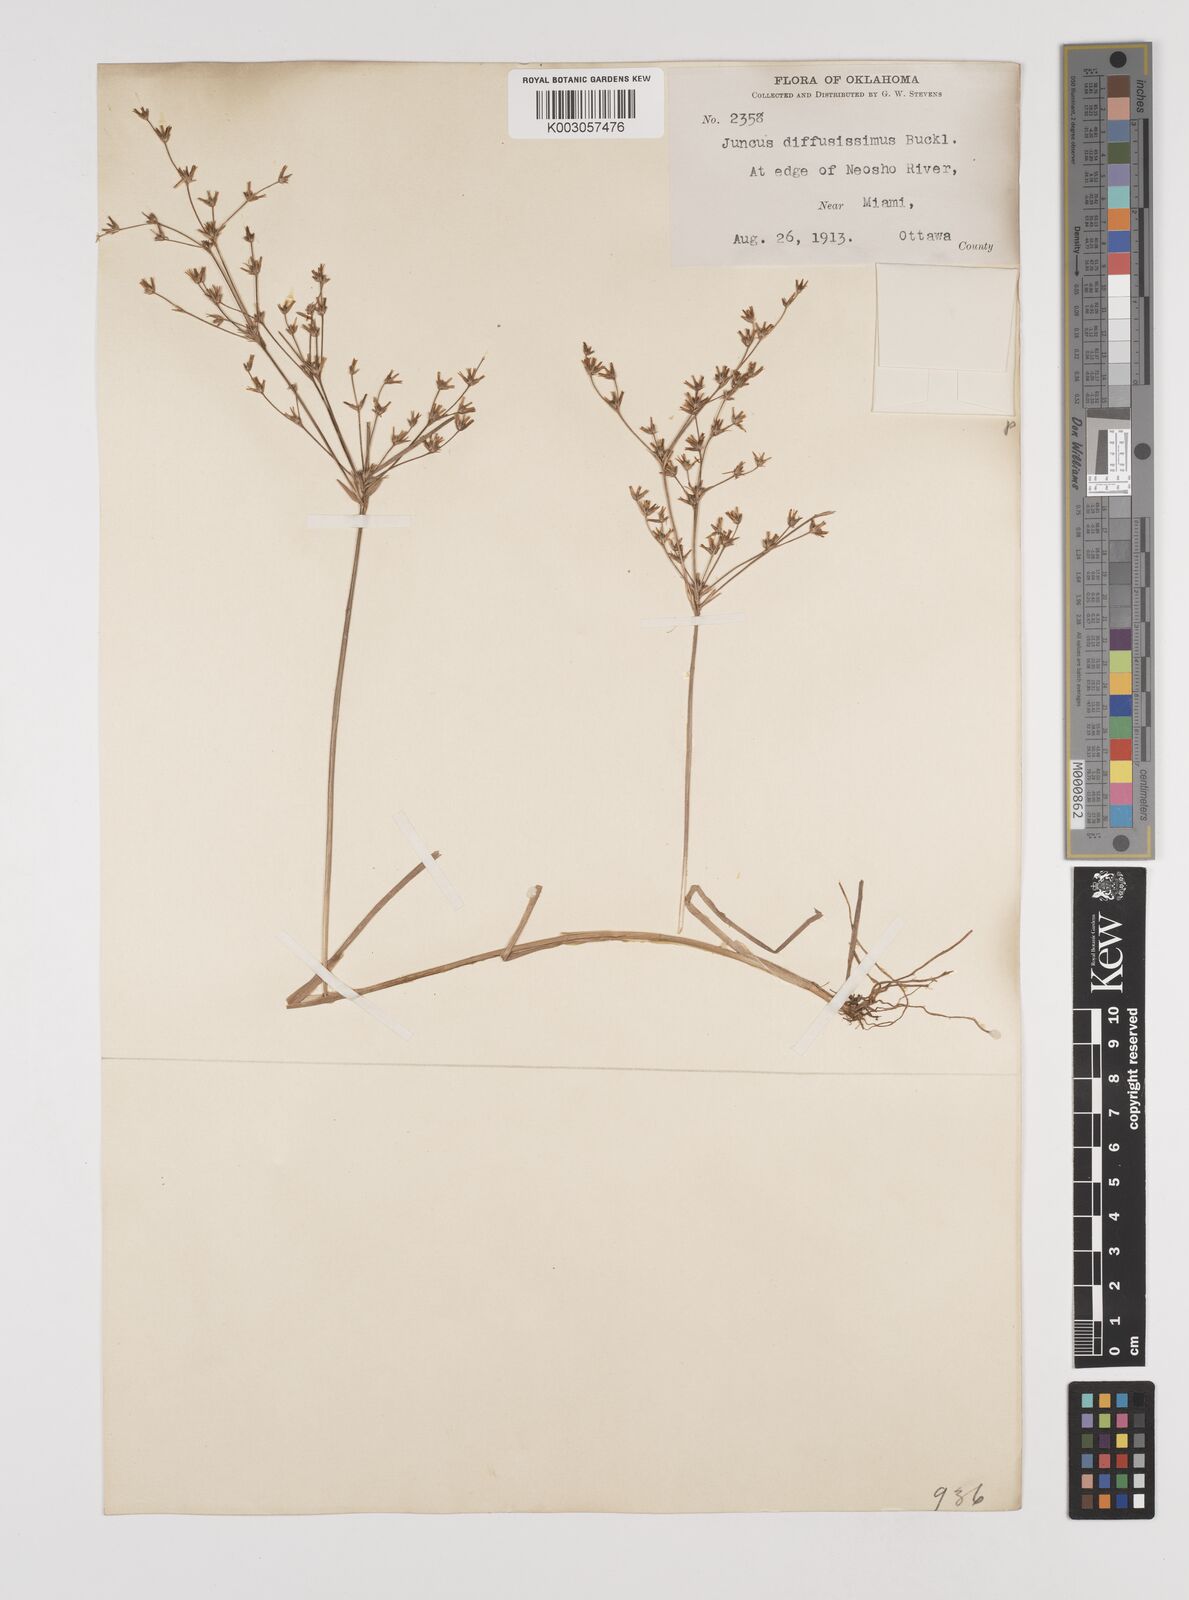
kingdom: Plantae
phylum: Tracheophyta
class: Liliopsida
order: Poales
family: Juncaceae
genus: Juncus
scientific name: Juncus diffusissimus
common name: Slimpod rush
